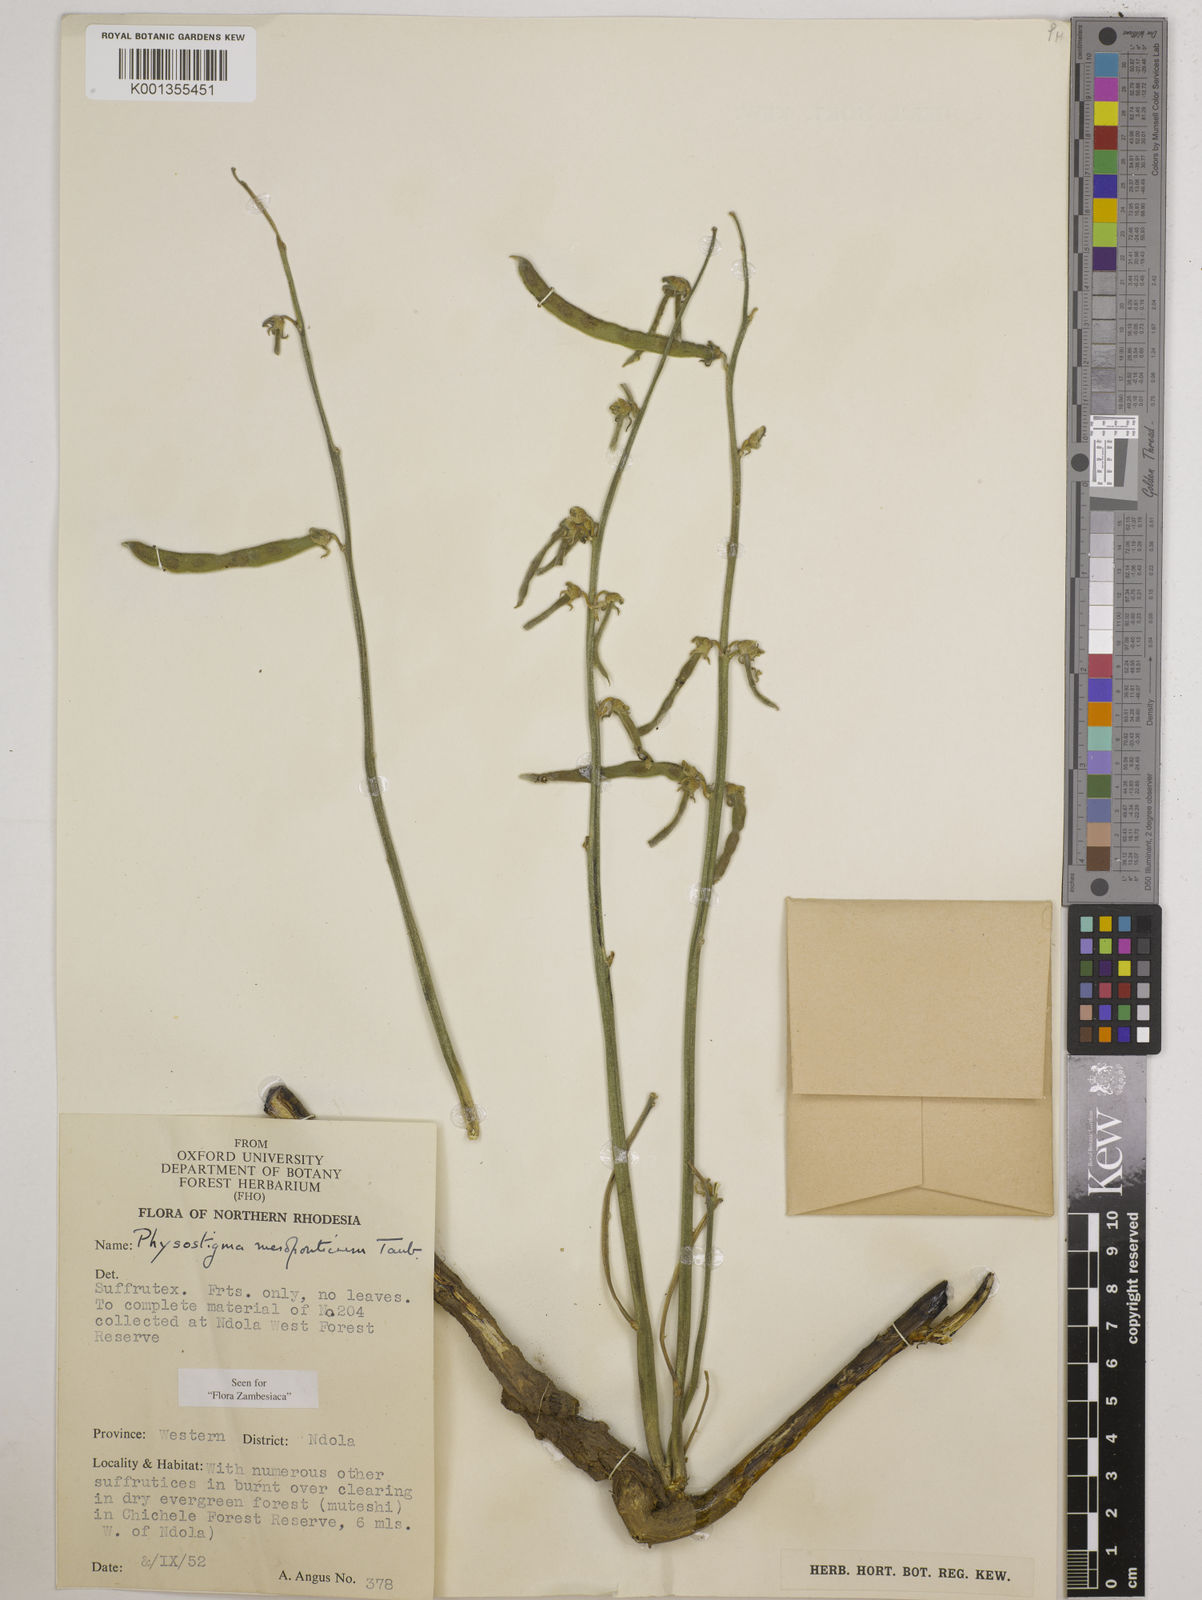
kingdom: Plantae
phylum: Tracheophyta
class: Magnoliopsida
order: Fabales
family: Fabaceae
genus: Physostigma
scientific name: Physostigma mesoponticum
